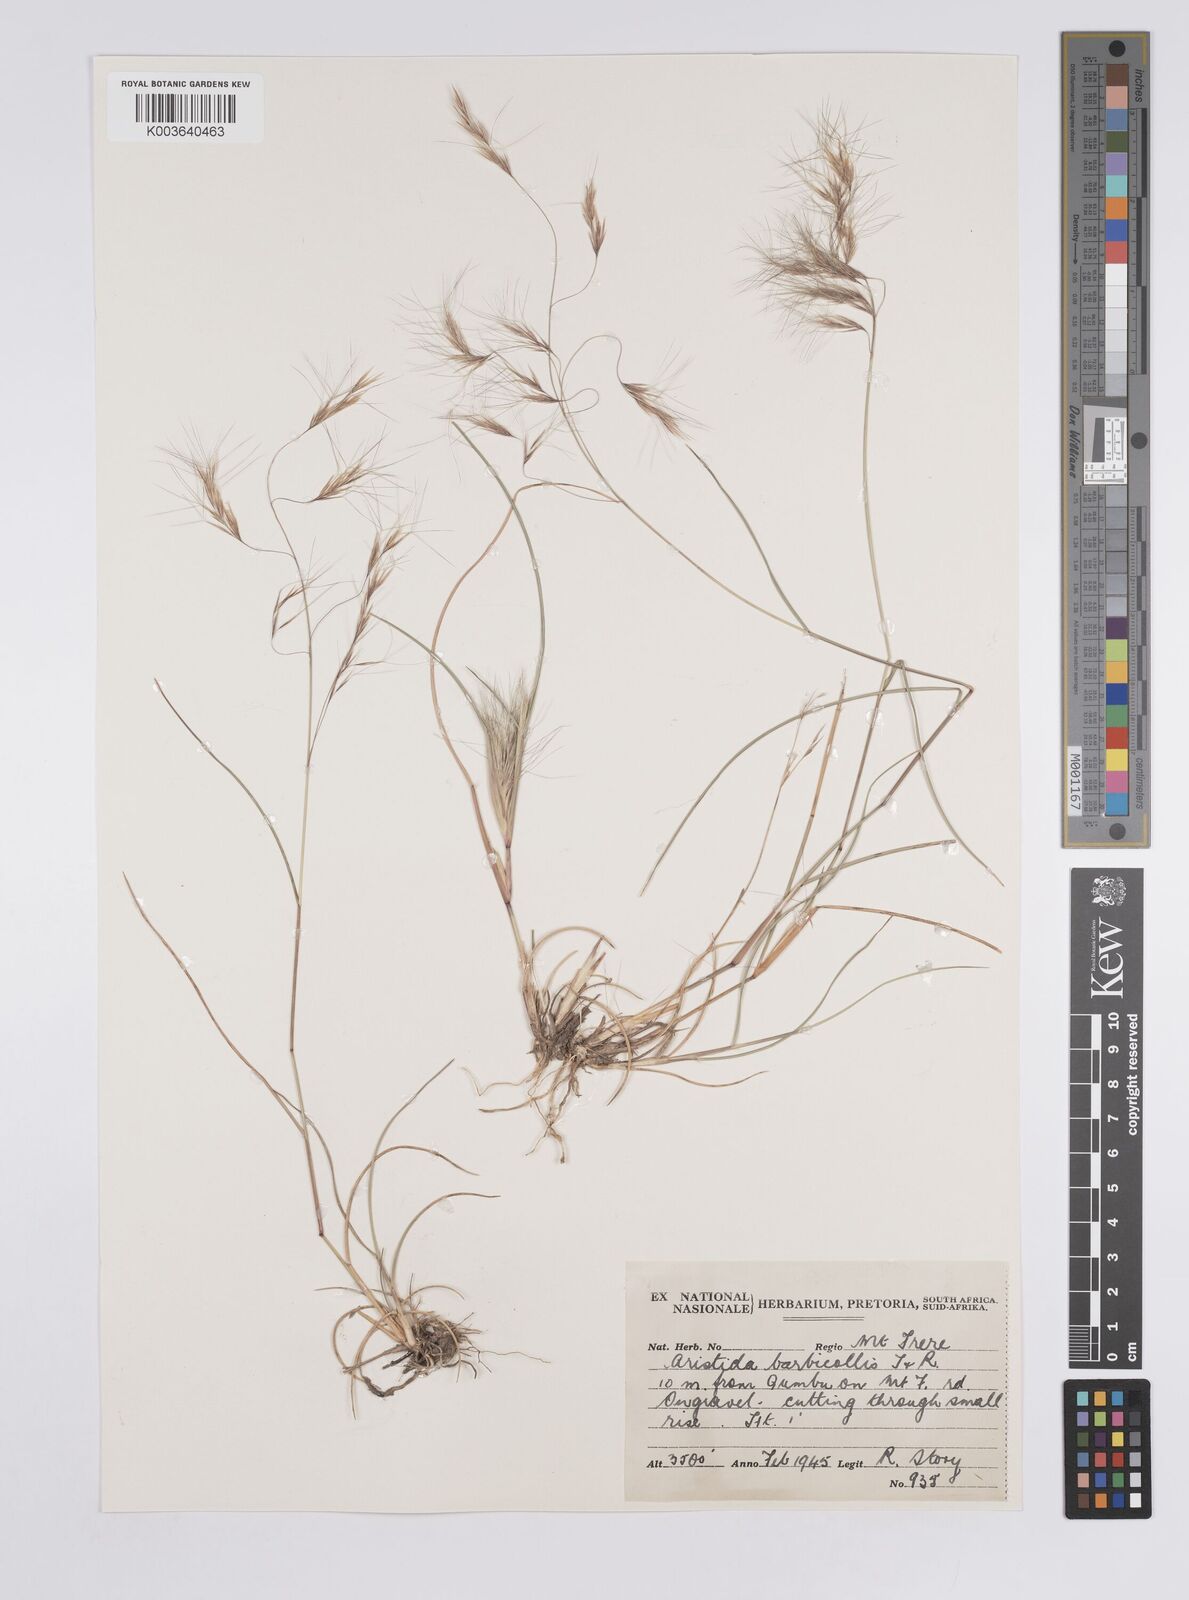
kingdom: Plantae
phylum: Tracheophyta
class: Liliopsida
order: Poales
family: Poaceae
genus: Aristida
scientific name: Aristida barbicollis
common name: Spreading prickle grass
